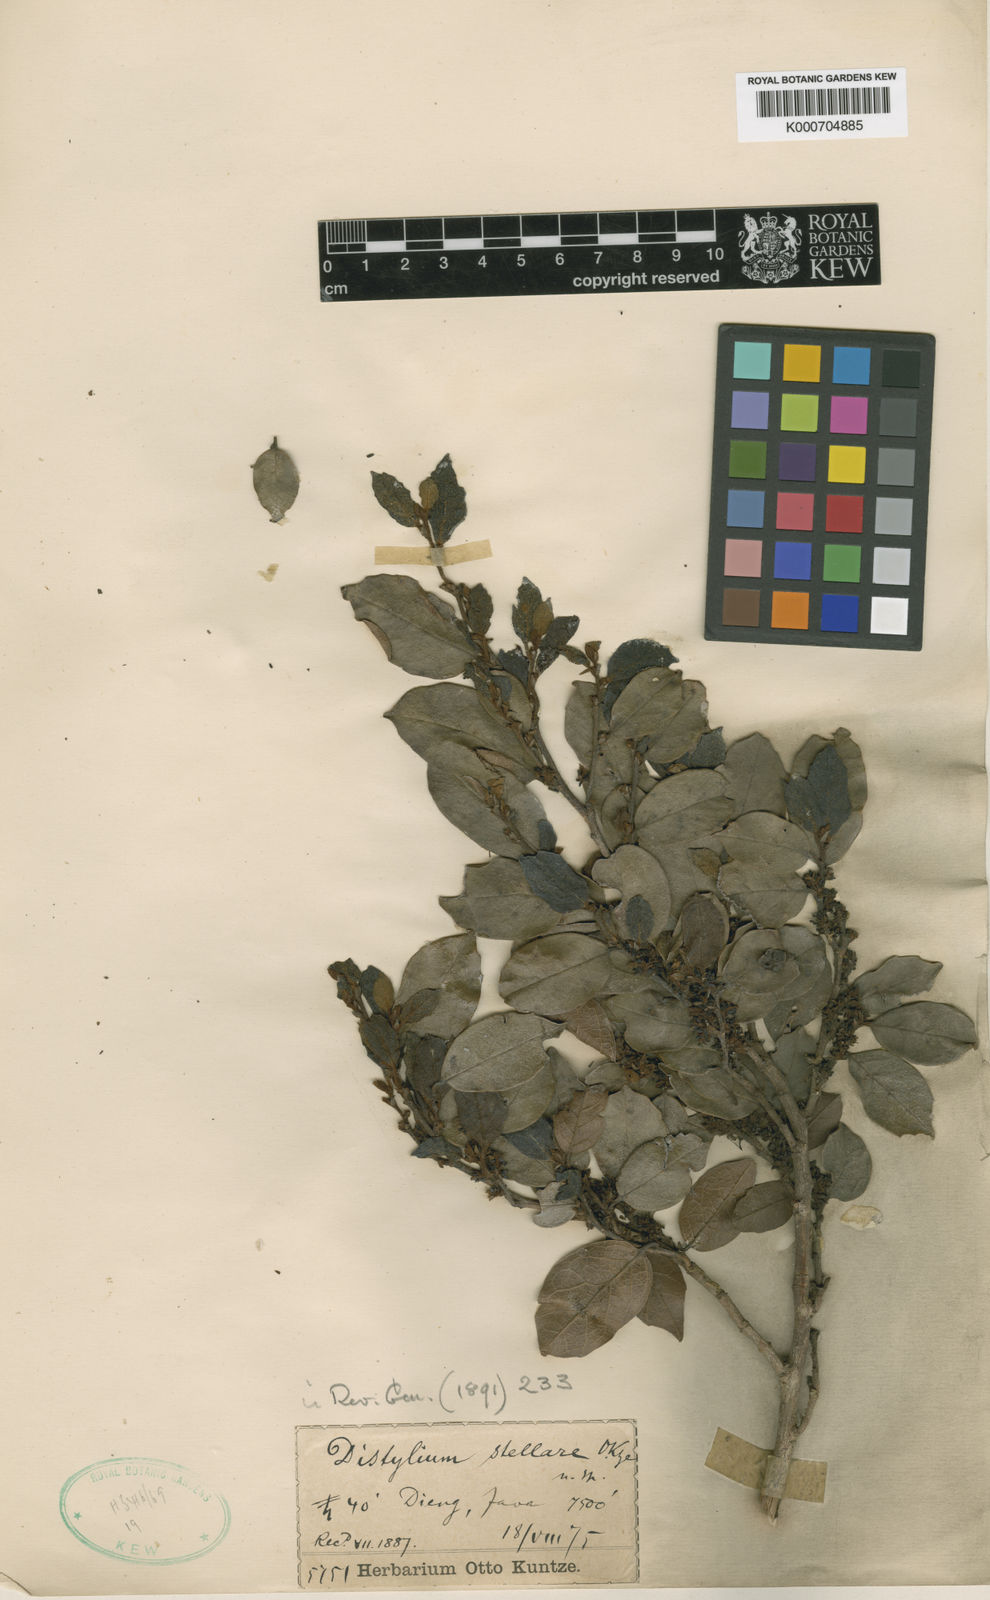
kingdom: Plantae
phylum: Tracheophyta
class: Magnoliopsida
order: Saxifragales
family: Hamamelidaceae
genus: Distylium
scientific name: Distylium stellare
